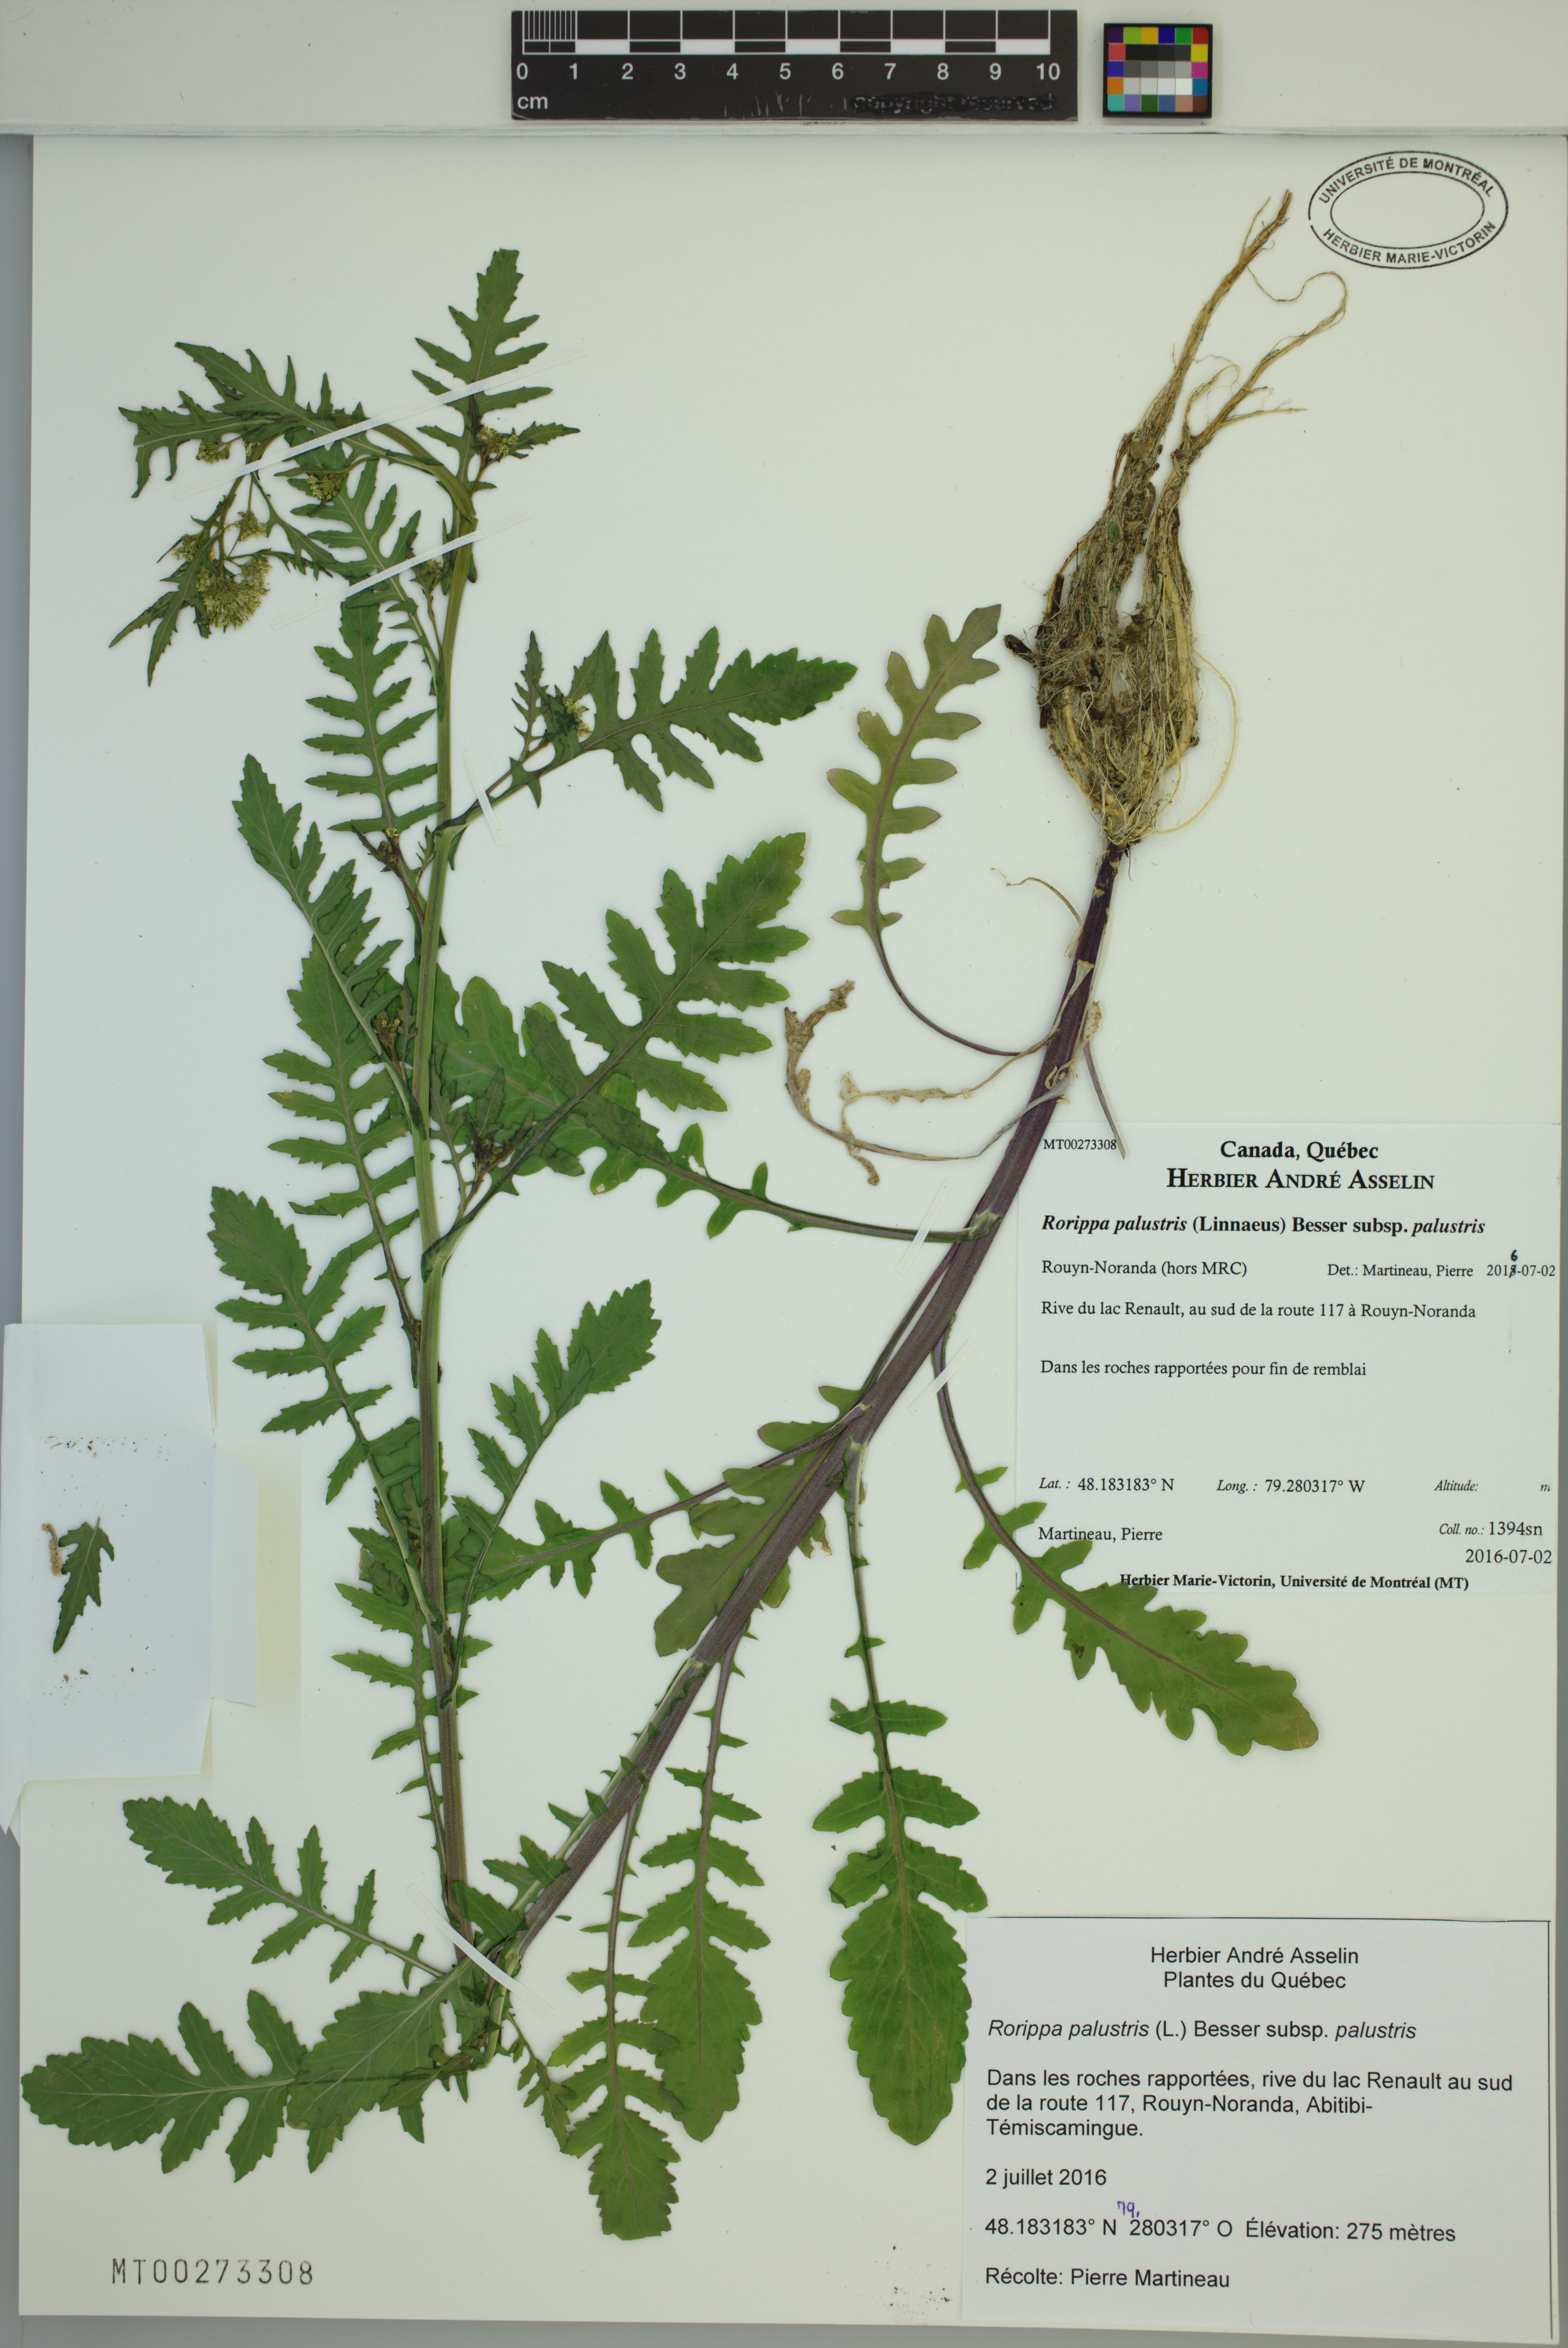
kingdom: Plantae
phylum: Tracheophyta
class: Magnoliopsida
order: Brassicales
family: Brassicaceae
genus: Rorippa
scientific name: Rorippa palustris
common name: Marsh yellow-cress
